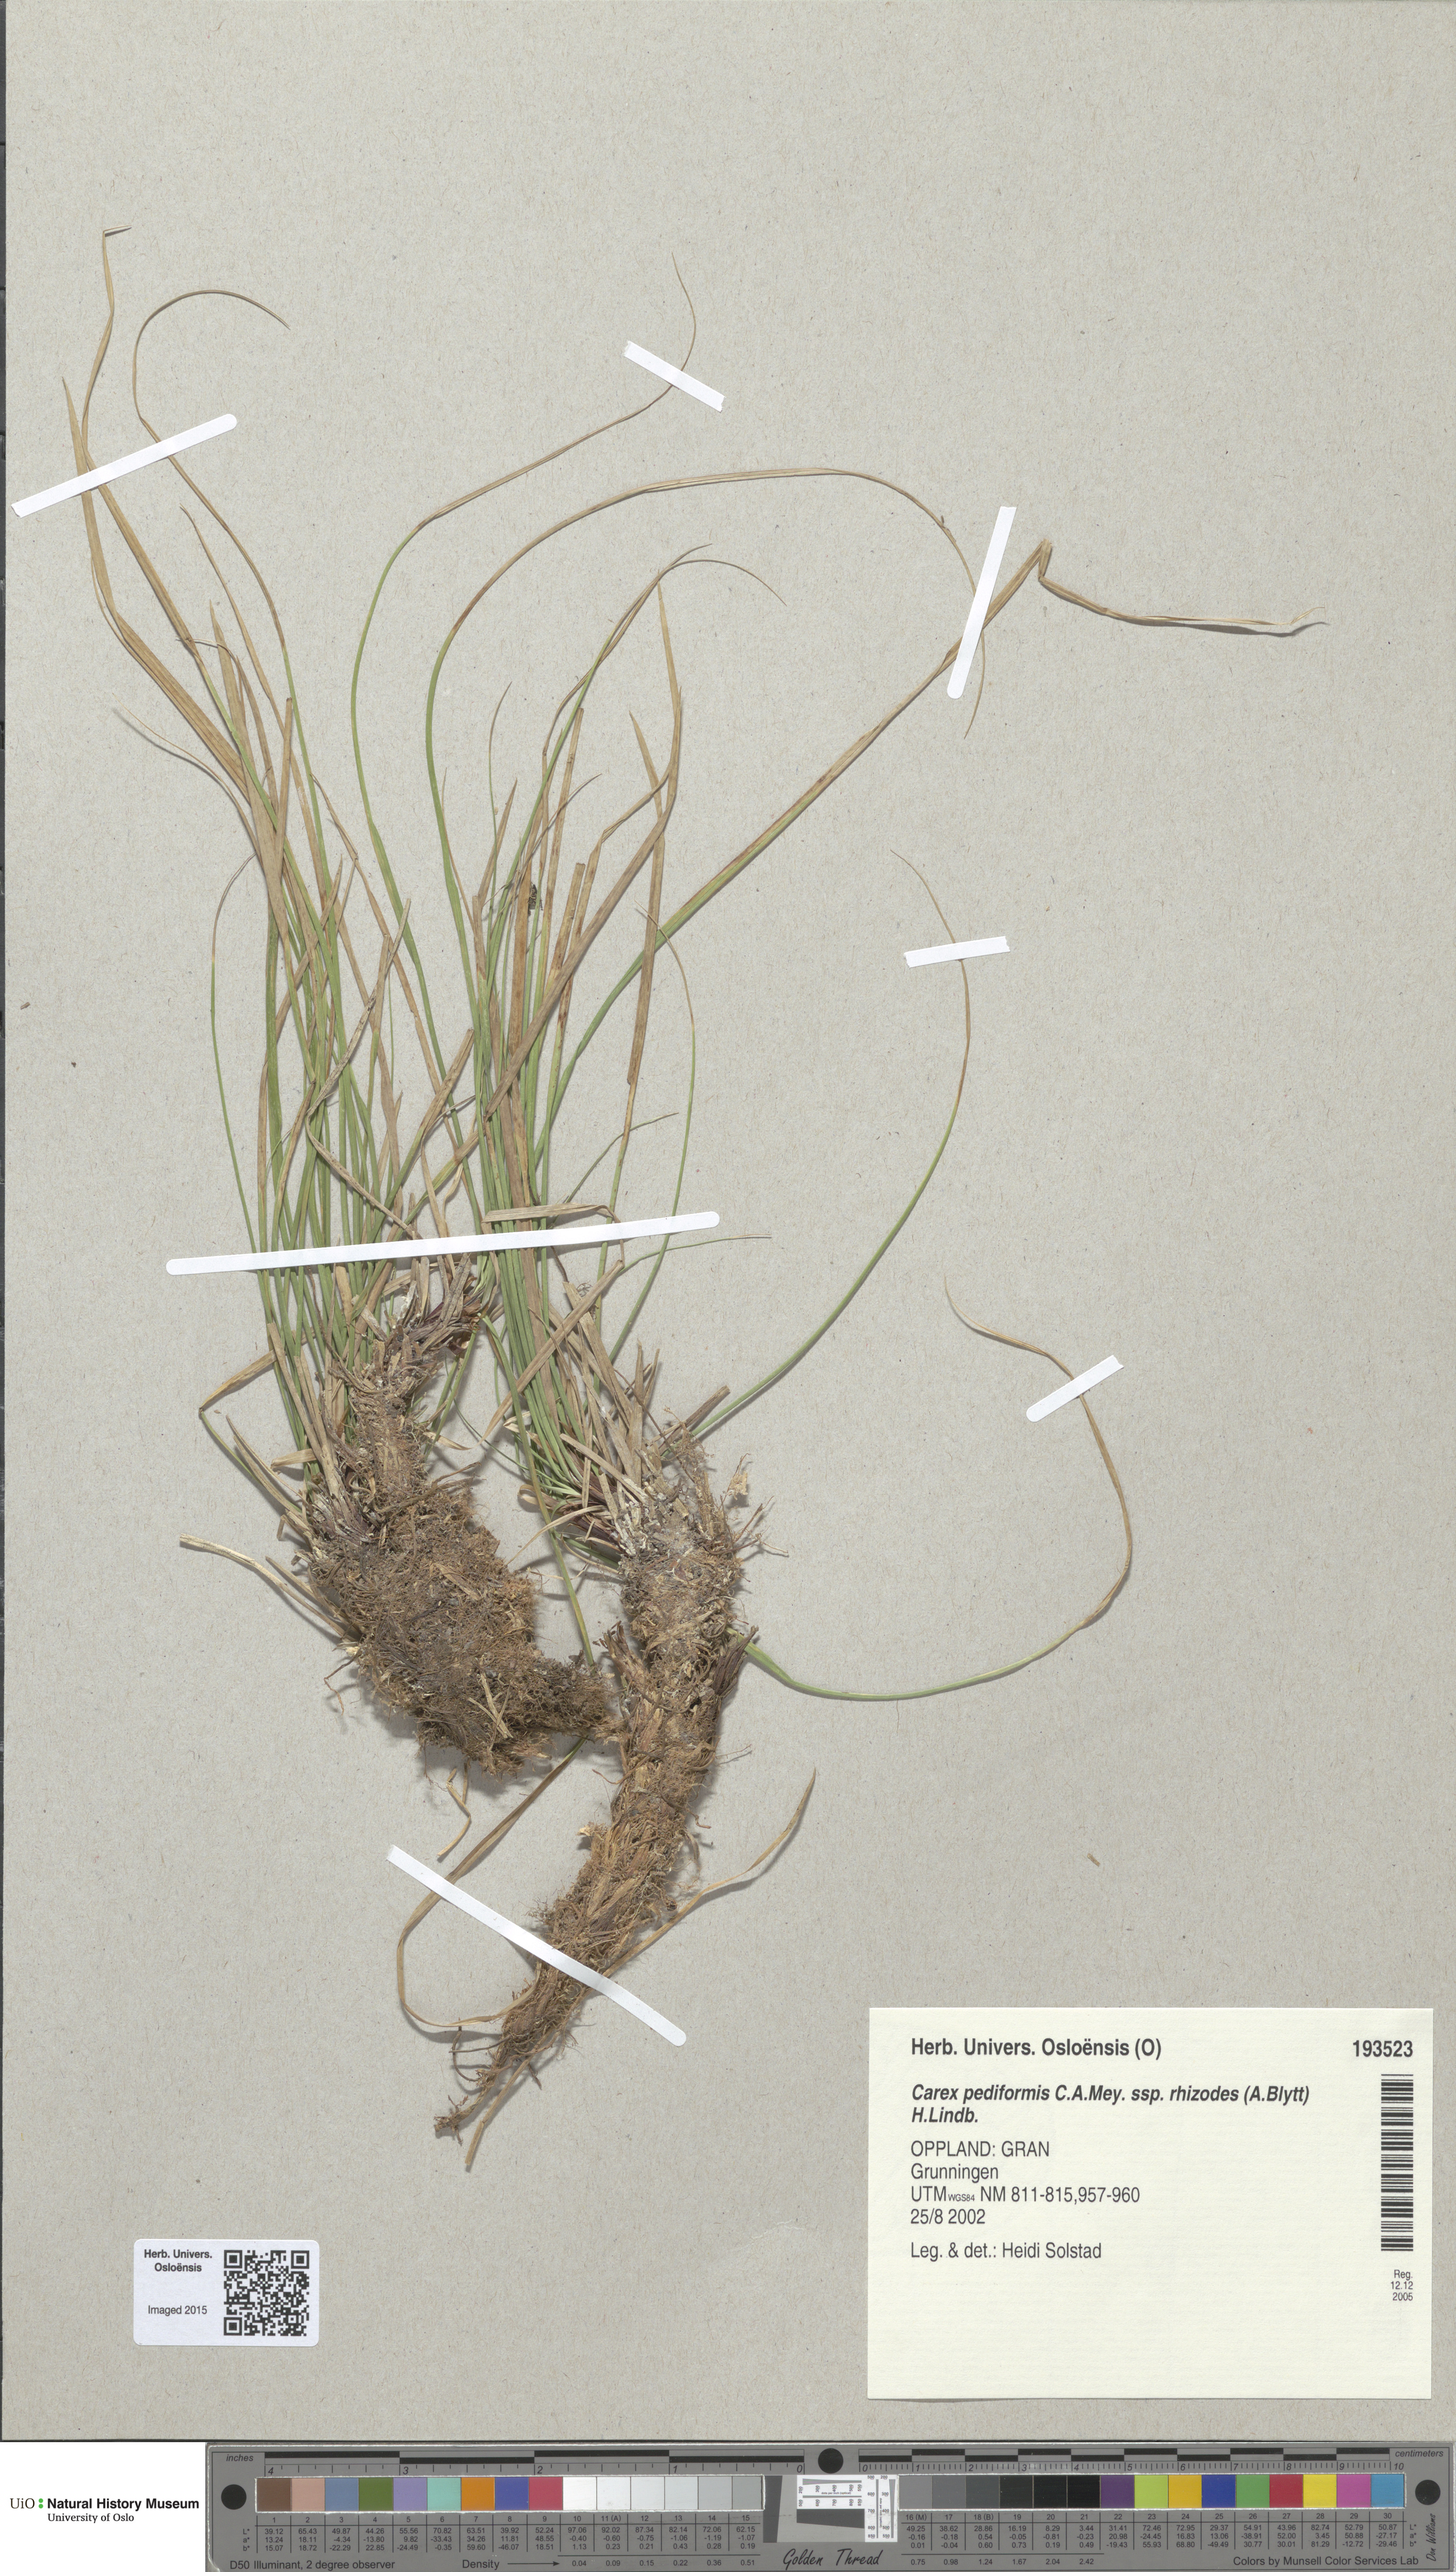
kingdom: Plantae
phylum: Tracheophyta
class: Liliopsida
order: Poales
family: Cyperaceae
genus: Carex
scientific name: Carex rhizina
